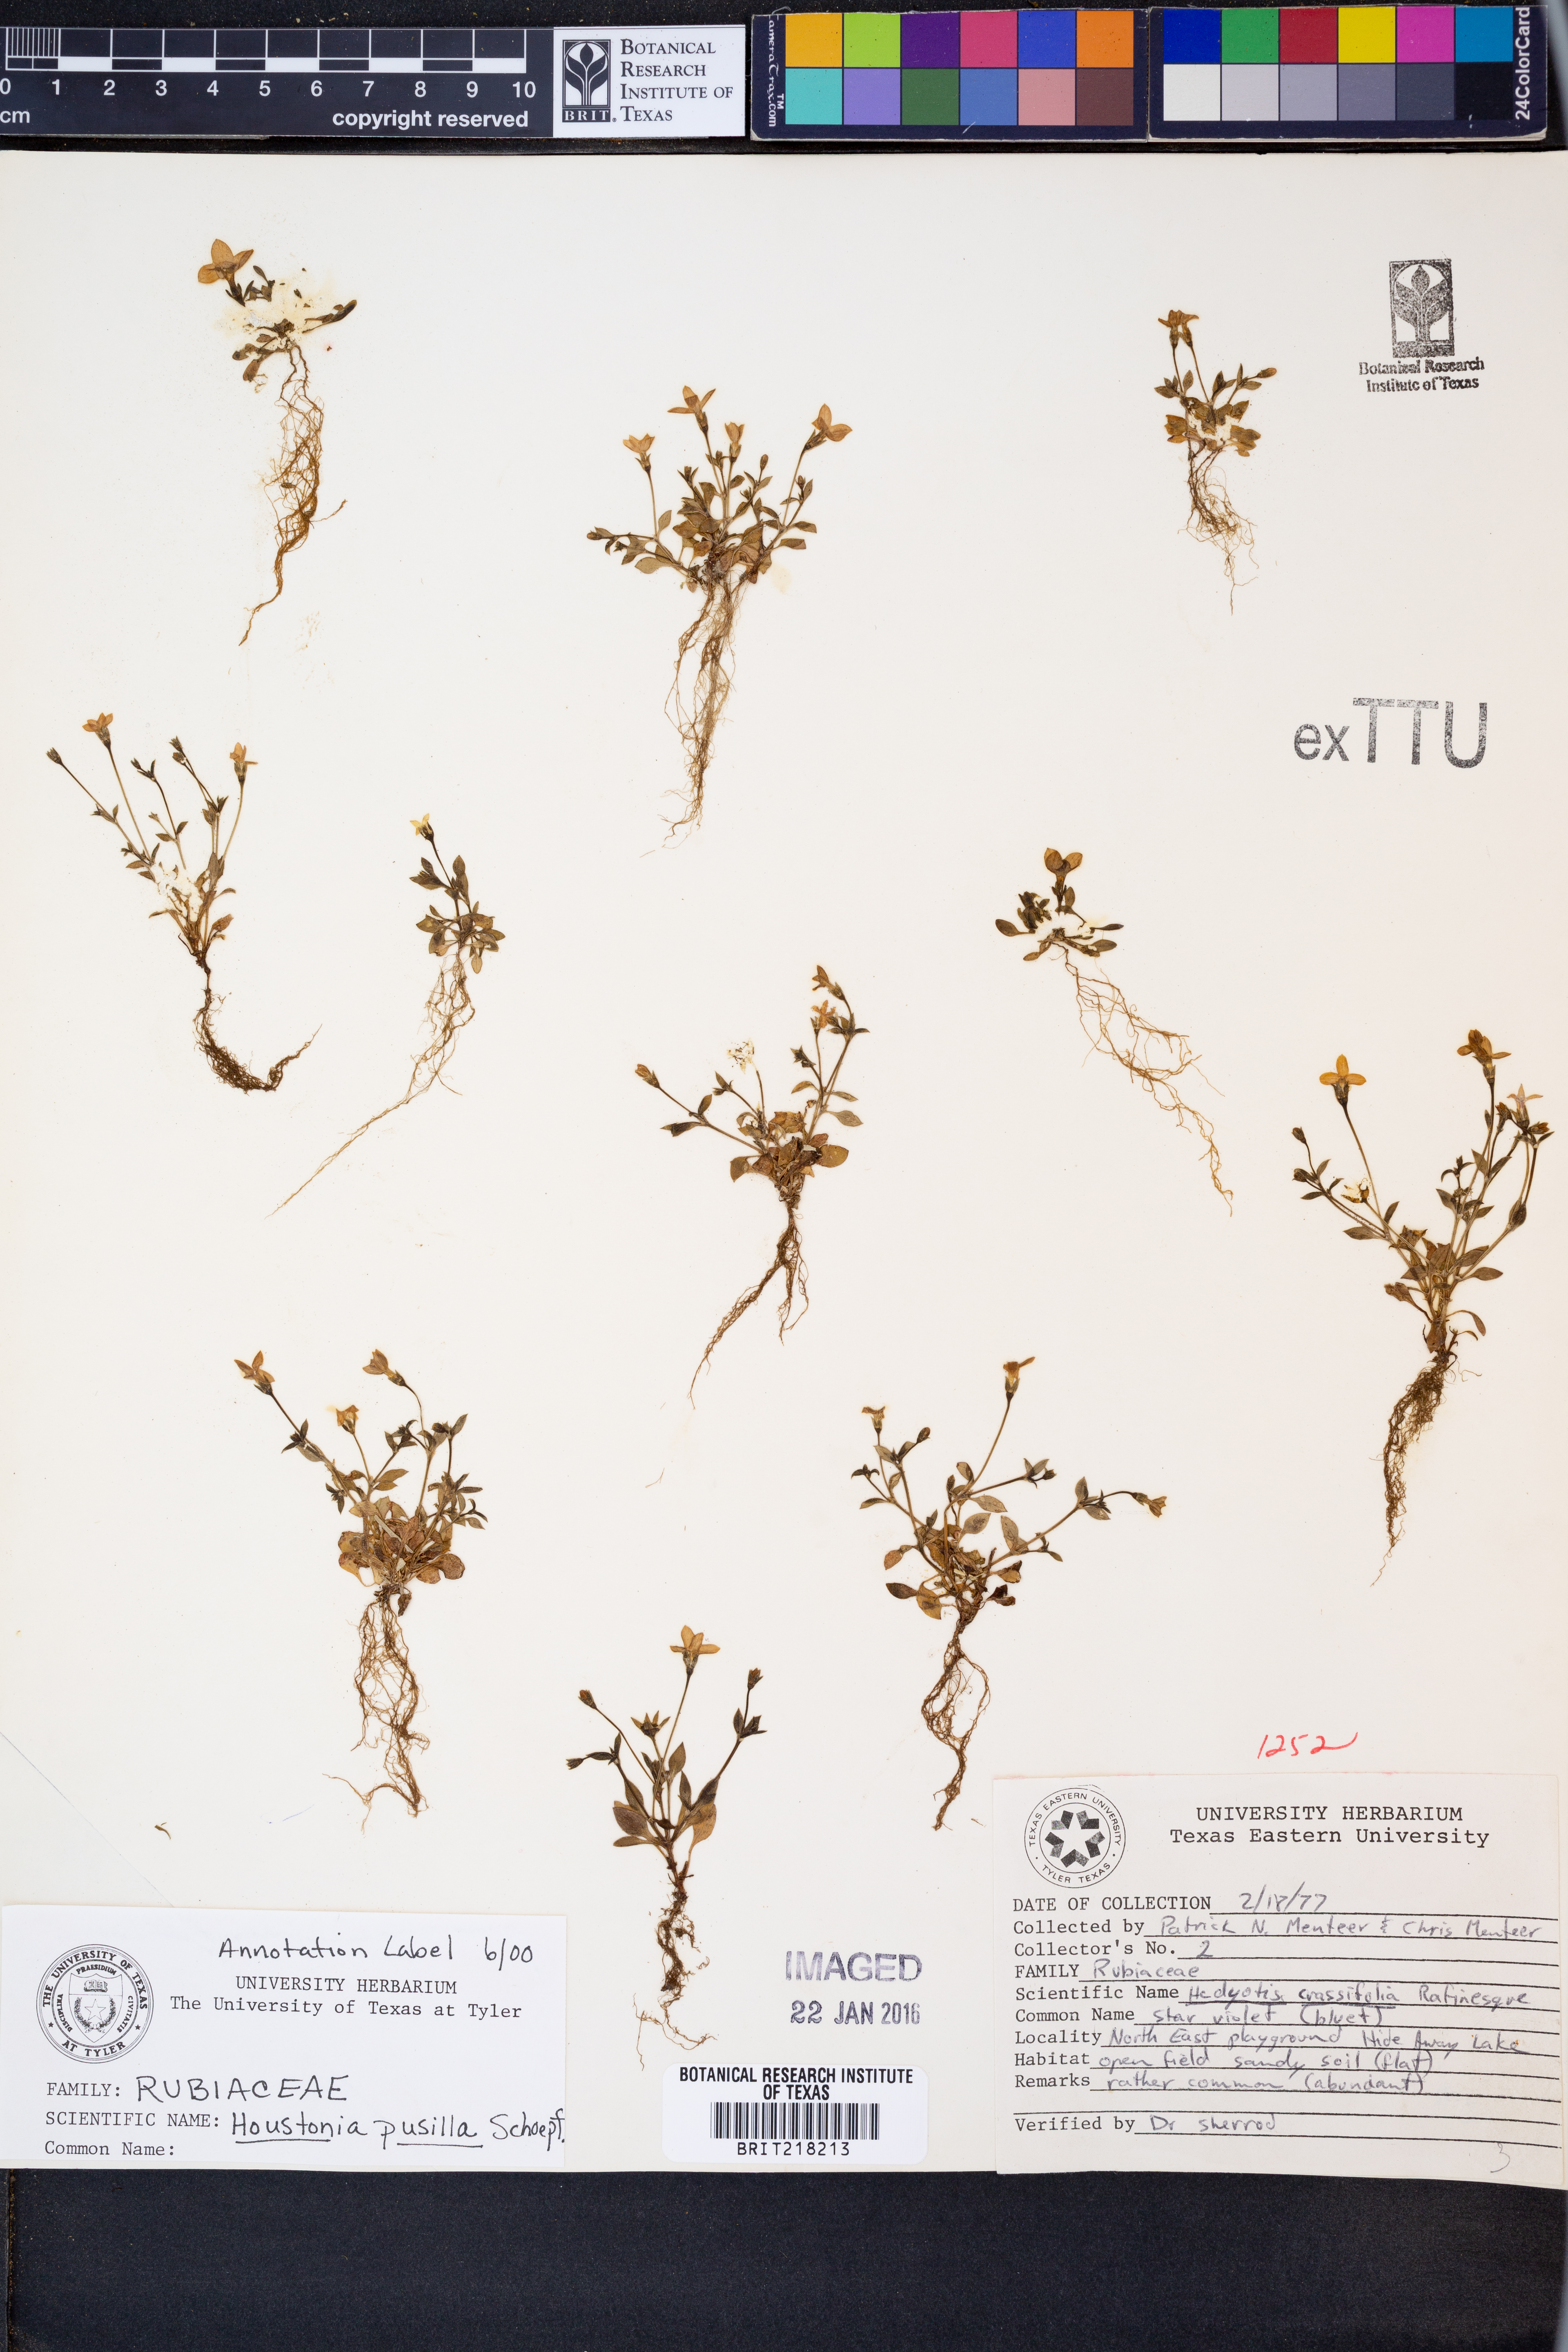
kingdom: Plantae
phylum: Tracheophyta
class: Magnoliopsida
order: Gentianales
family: Rubiaceae
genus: Houstonia
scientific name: Houstonia pusilla
